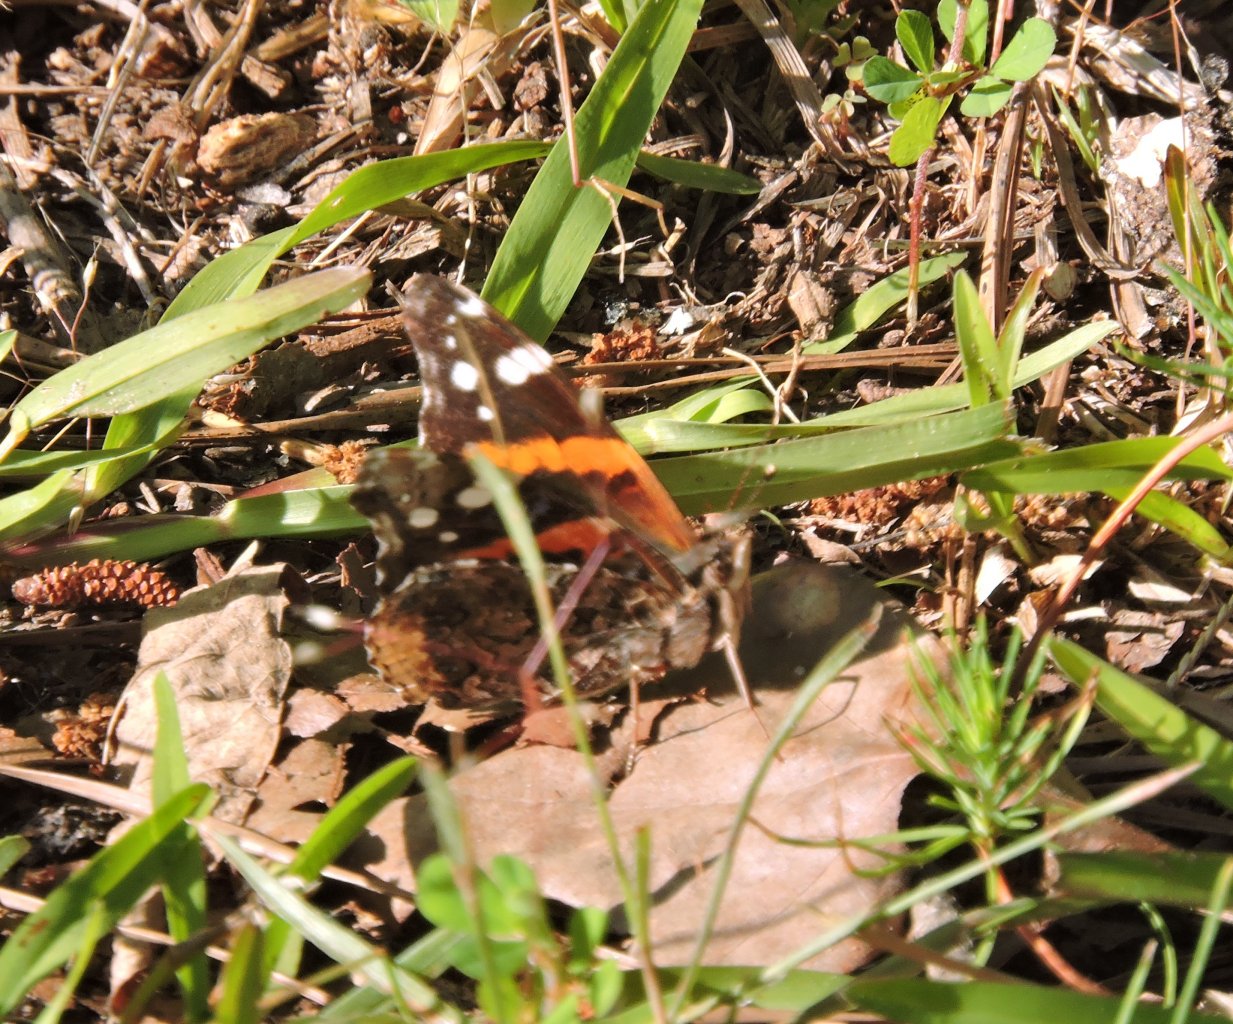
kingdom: Animalia
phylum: Arthropoda
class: Insecta
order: Lepidoptera
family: Nymphalidae
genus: Vanessa
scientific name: Vanessa atalanta
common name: Red Admiral
